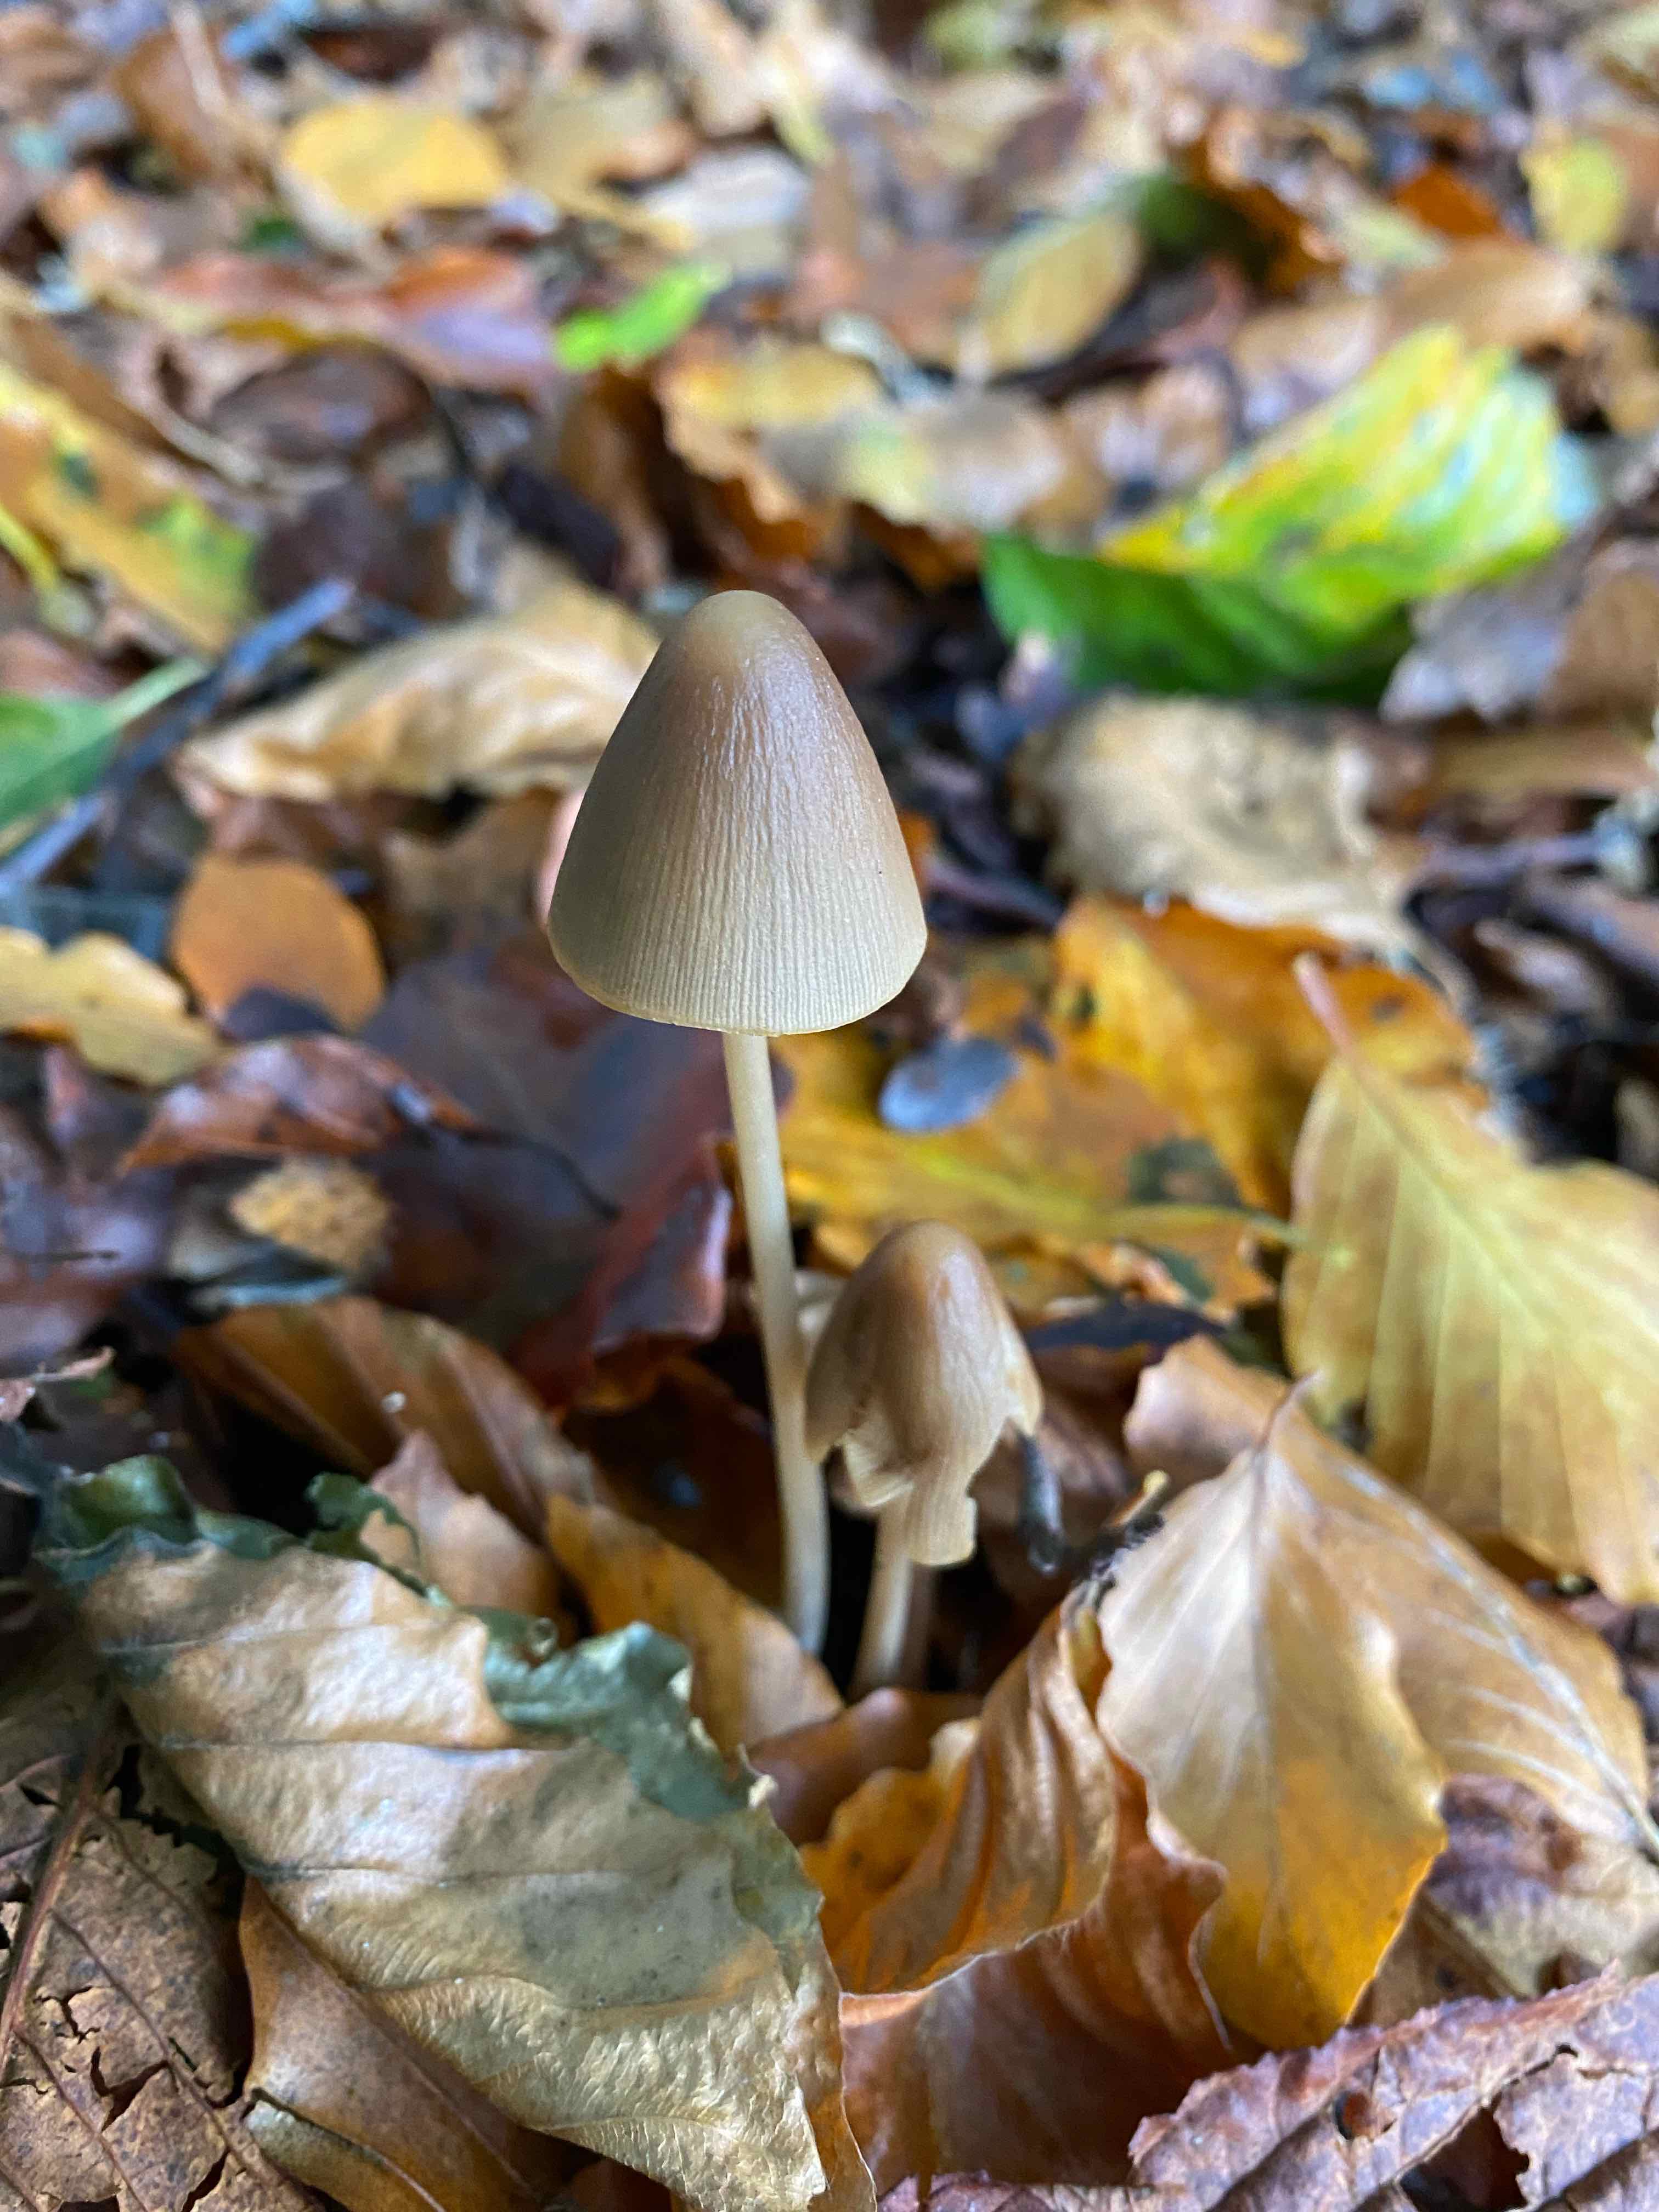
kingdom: Fungi
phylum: Basidiomycota
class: Agaricomycetes
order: Agaricales
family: Psathyrellaceae
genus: Parasola
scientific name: Parasola conopilea
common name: kegle-hjulhat
